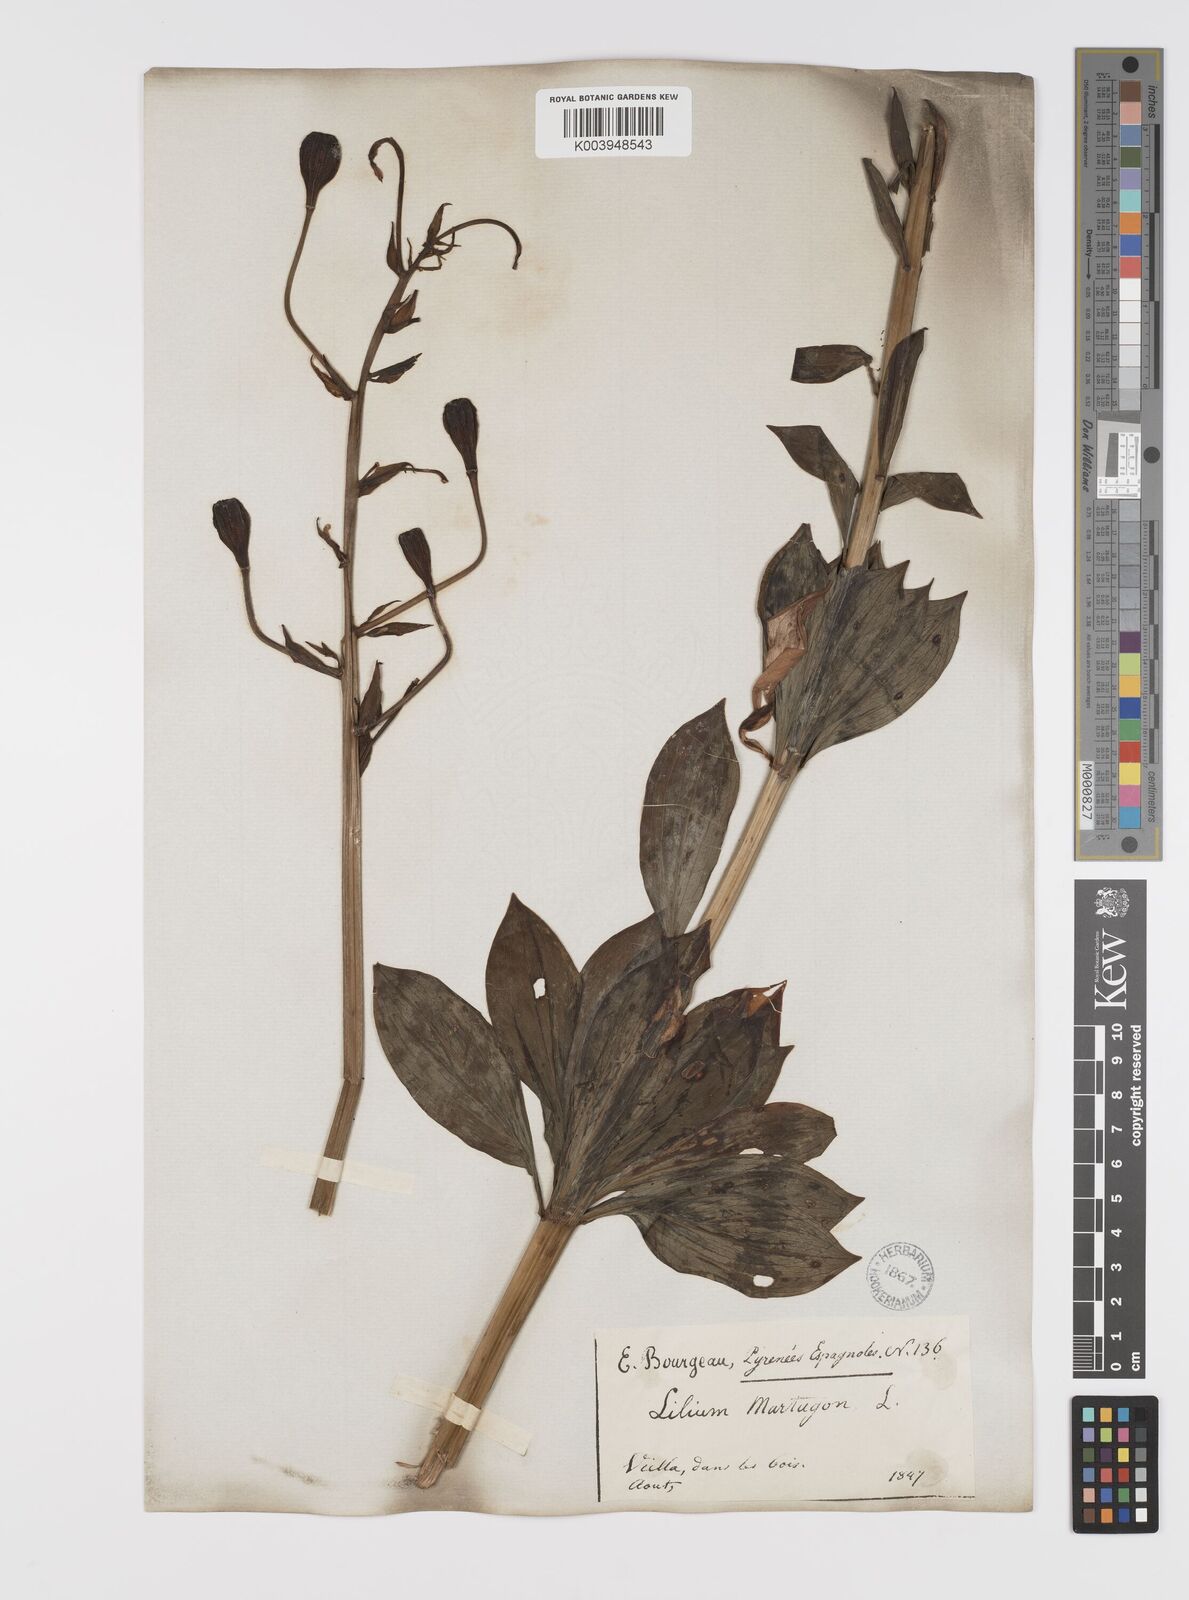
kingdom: Plantae
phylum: Tracheophyta
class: Liliopsida
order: Liliales
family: Liliaceae
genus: Lilium
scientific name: Lilium martagon
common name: Martagon lily
